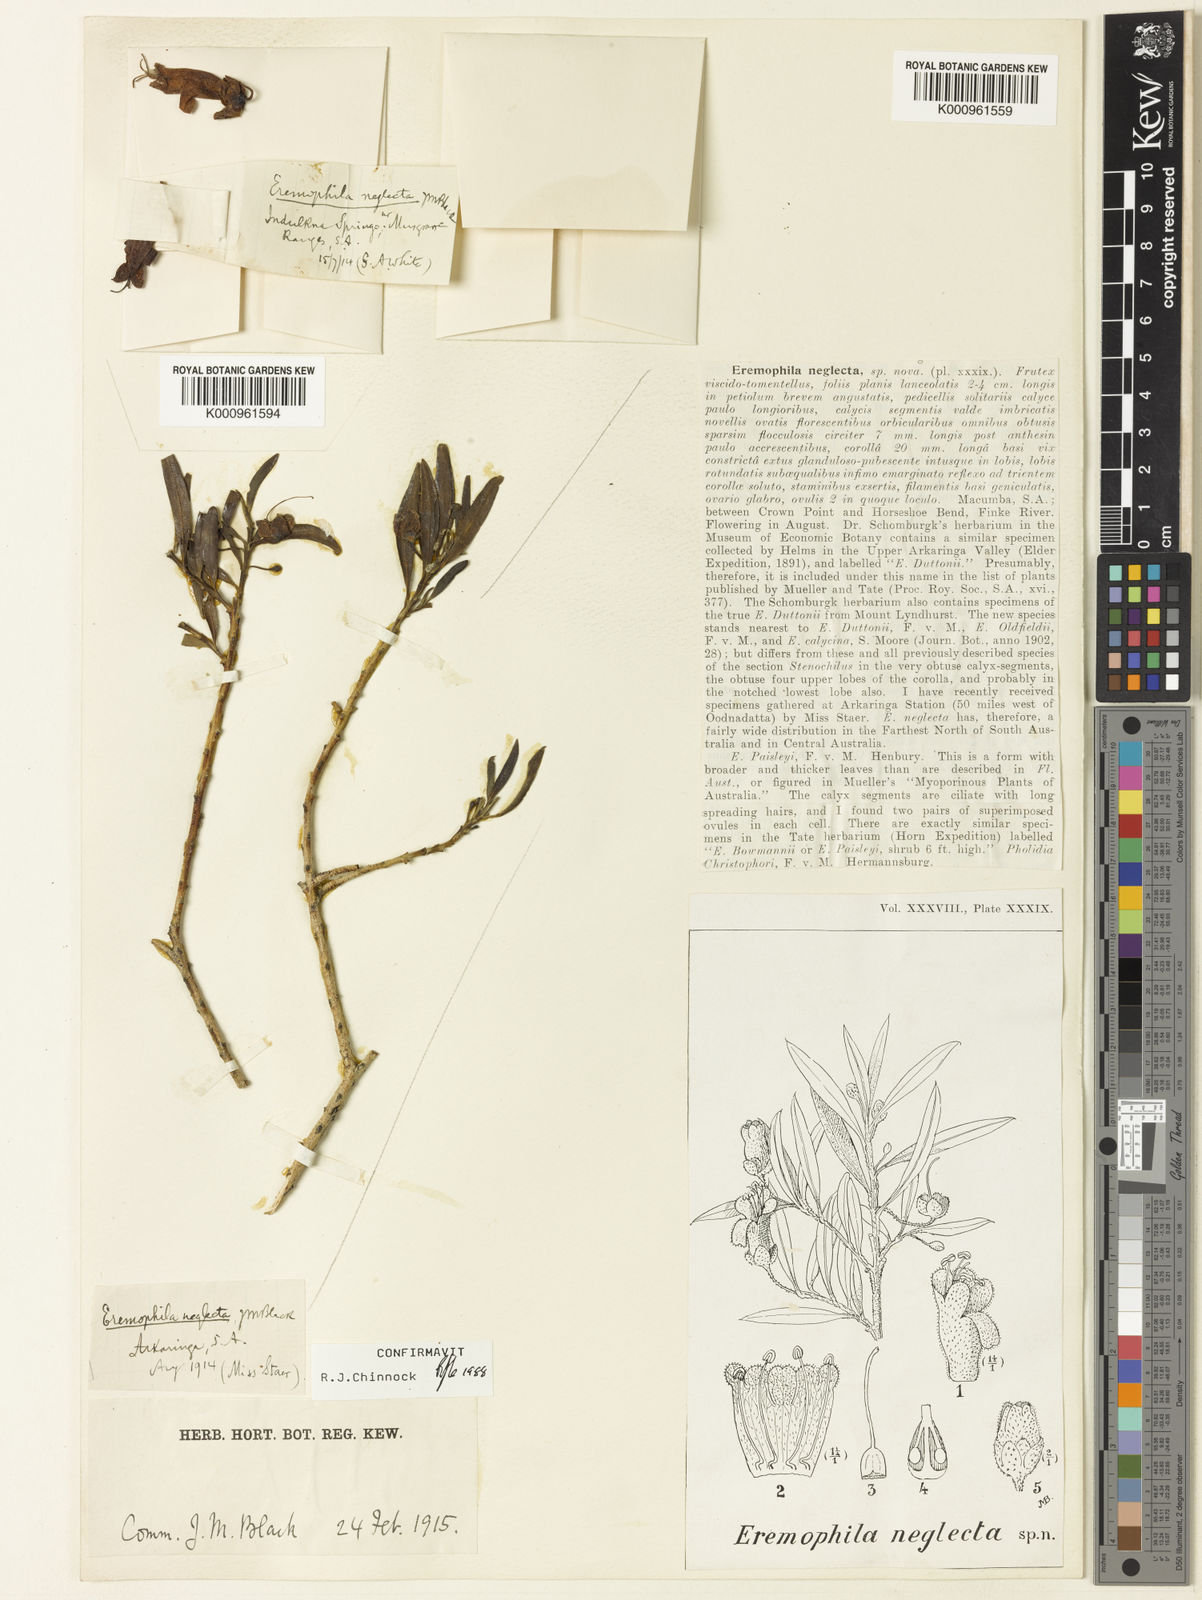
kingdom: Plantae
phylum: Tracheophyta
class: Magnoliopsida
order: Lamiales
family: Scrophulariaceae
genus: Eremophila
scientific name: Eremophila neglecta
